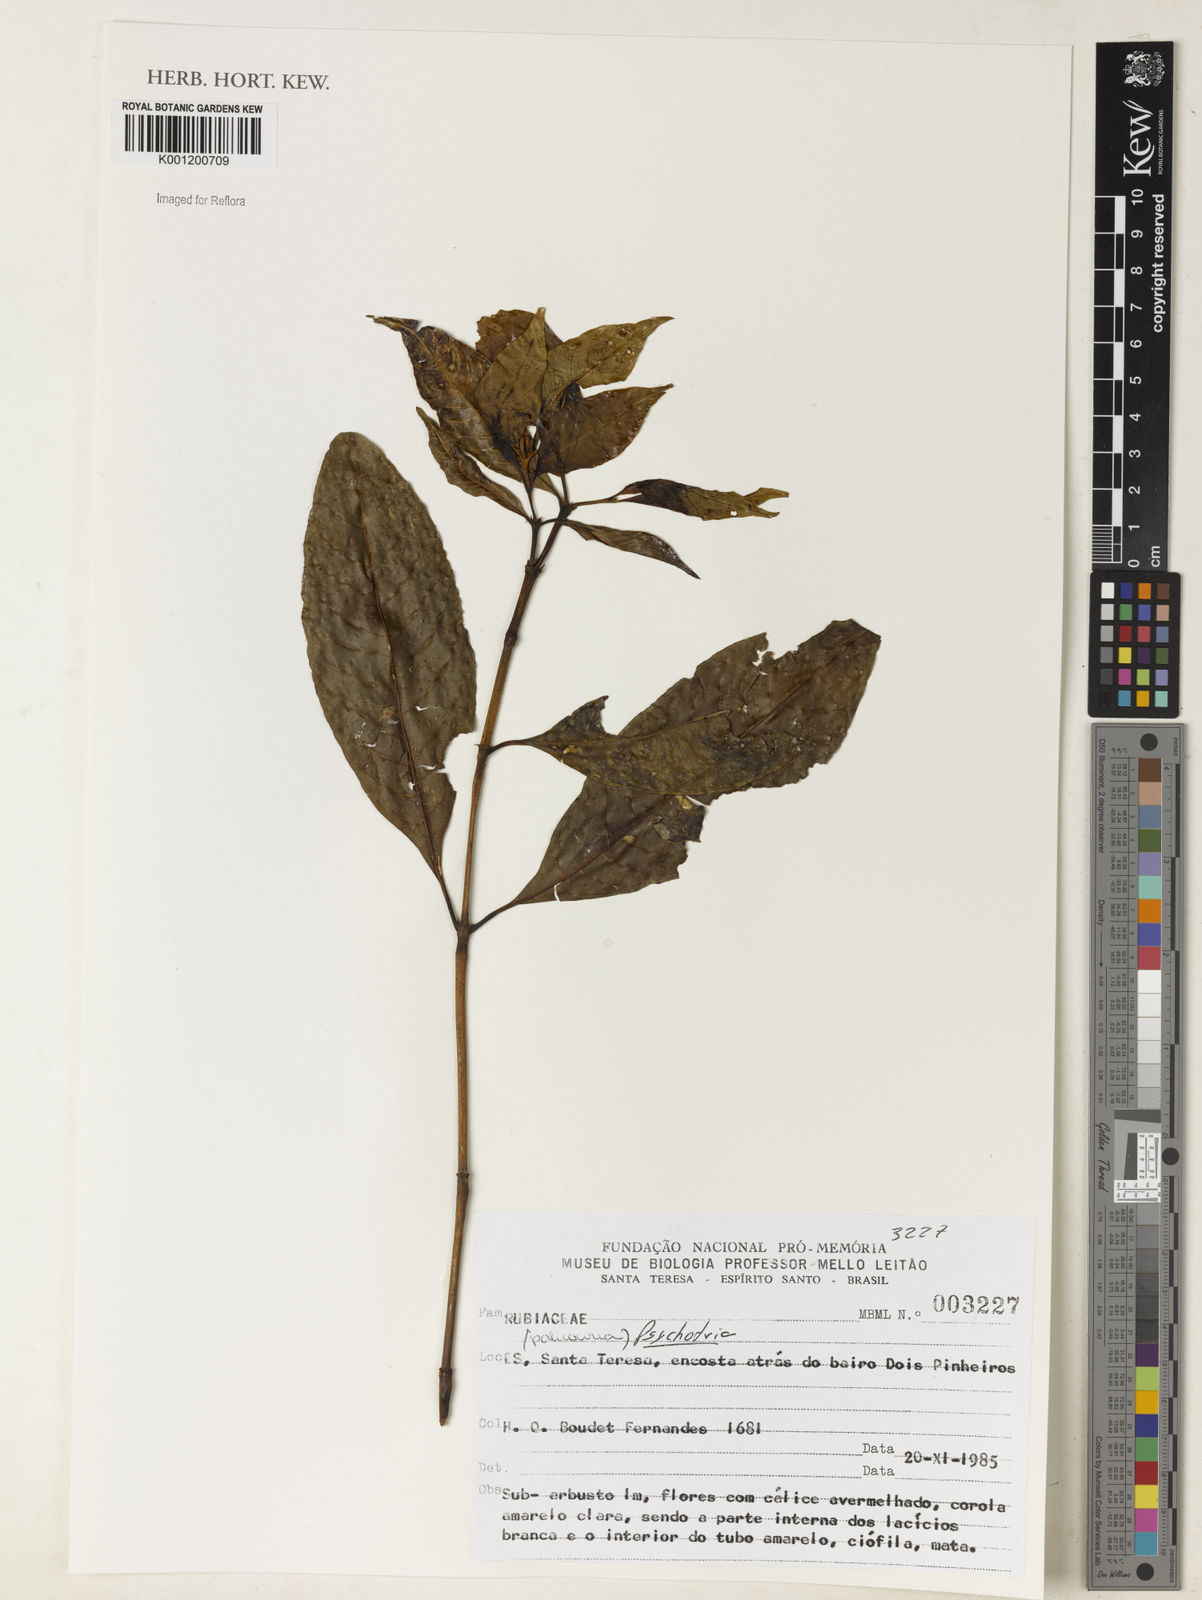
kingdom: Plantae
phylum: Tracheophyta
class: Magnoliopsida
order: Gentianales
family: Rubiaceae
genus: Psychotria
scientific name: Psychotria
